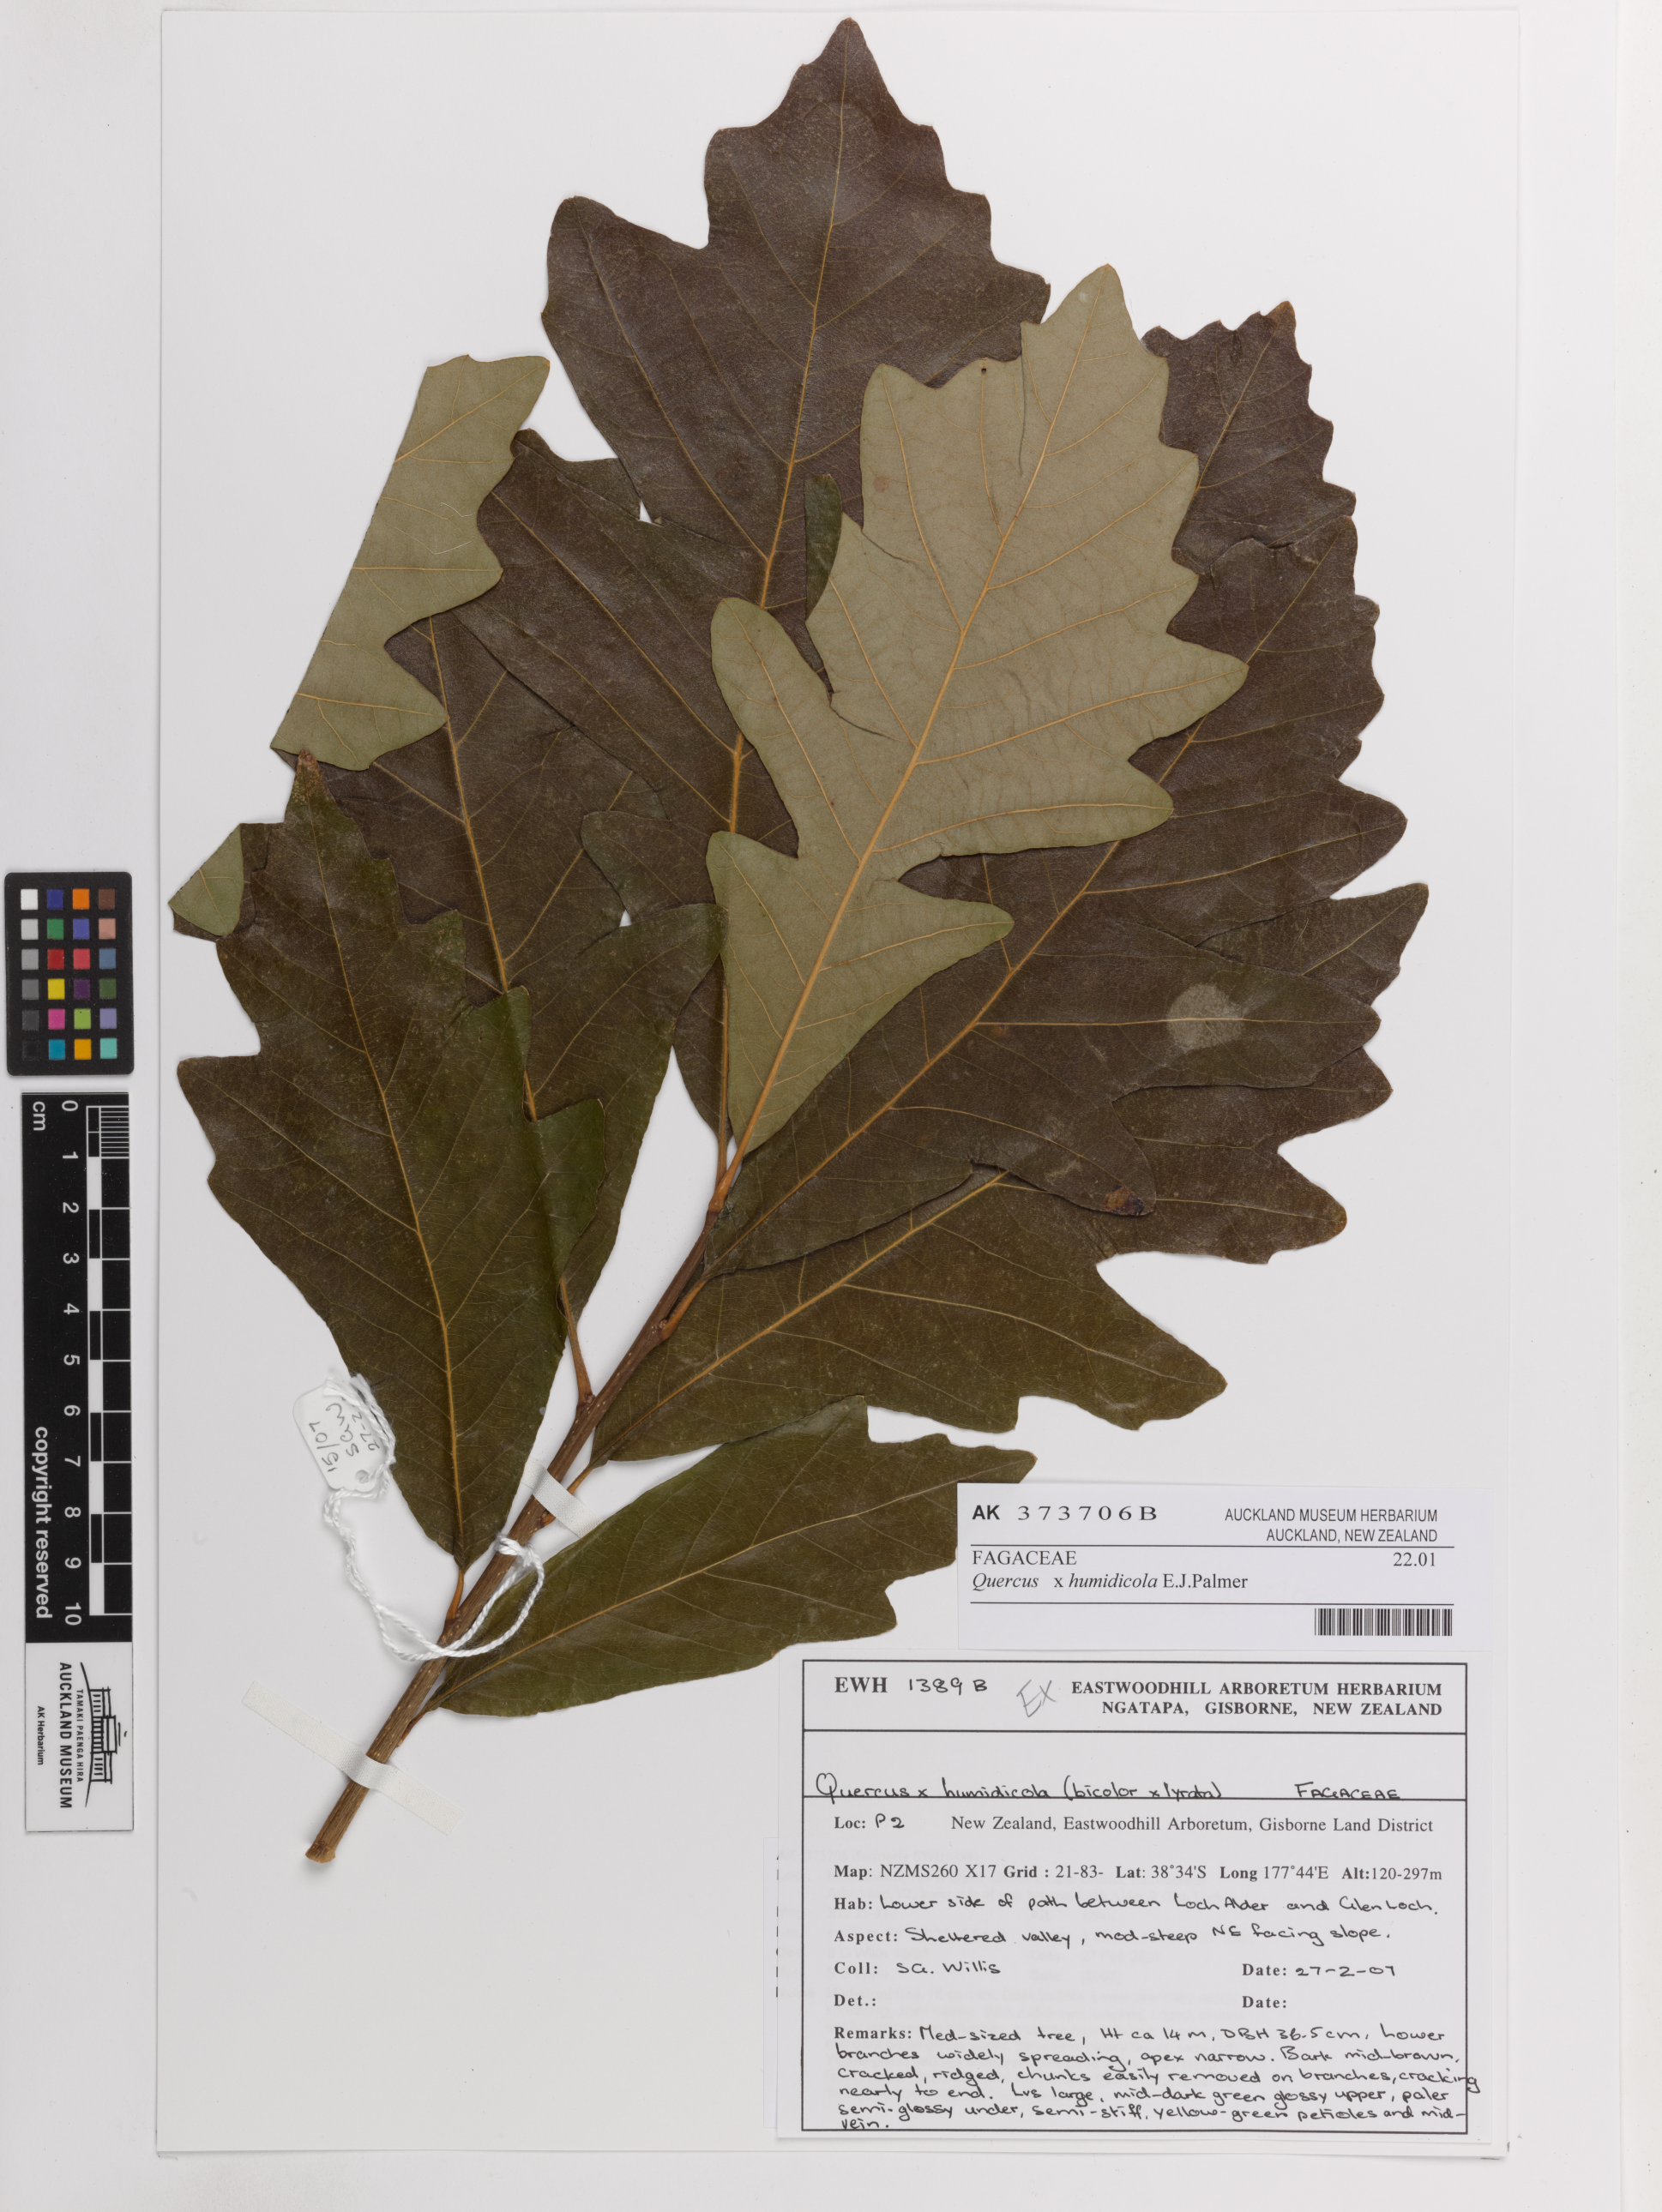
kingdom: Plantae
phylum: Tracheophyta
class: Magnoliopsida
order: Fagales
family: Fagaceae
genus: Quercus
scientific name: Quercus humidicola
